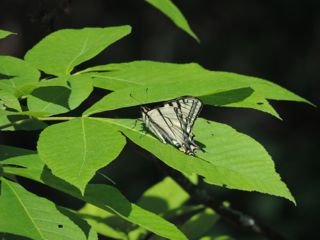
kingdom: Animalia
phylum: Arthropoda
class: Insecta
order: Lepidoptera
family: Papilionidae
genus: Pterourus
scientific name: Pterourus canadensis
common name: Canadian Tiger Swallowtail
